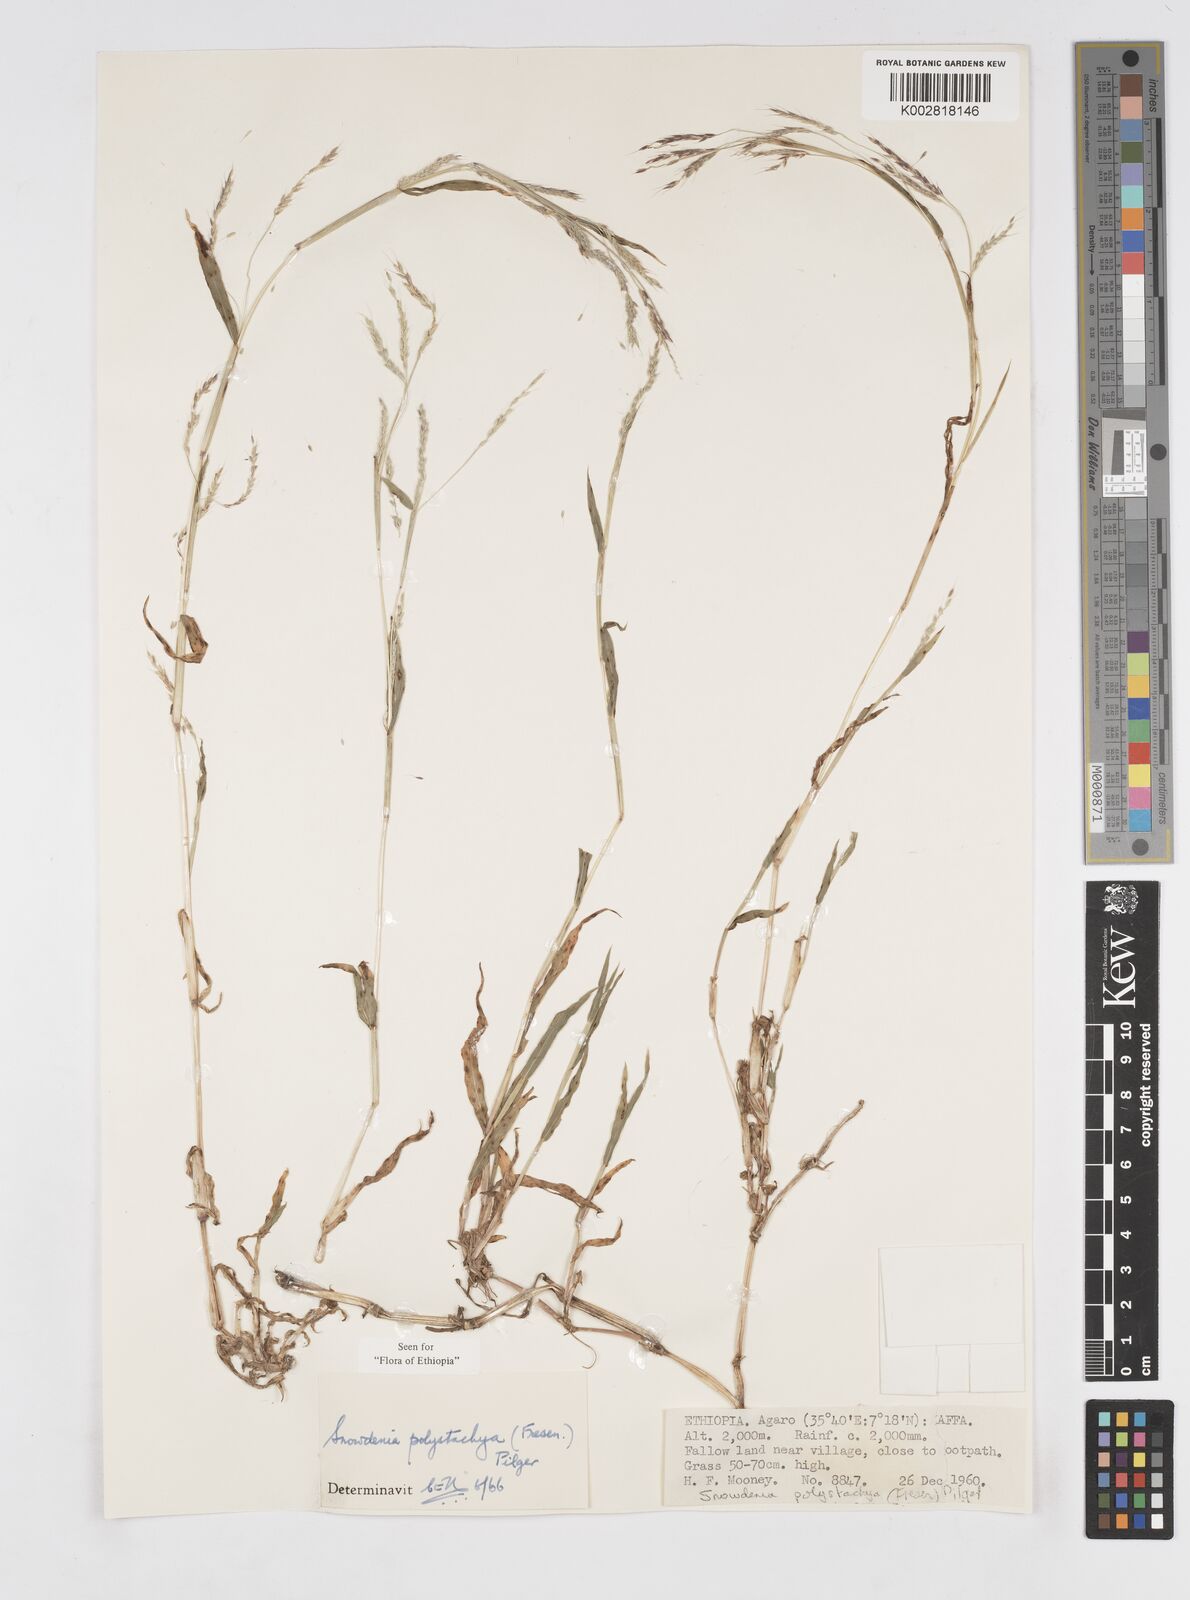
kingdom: Plantae
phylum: Tracheophyta
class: Liliopsida
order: Poales
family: Poaceae
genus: Snowdenia
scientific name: Snowdenia polystachya
